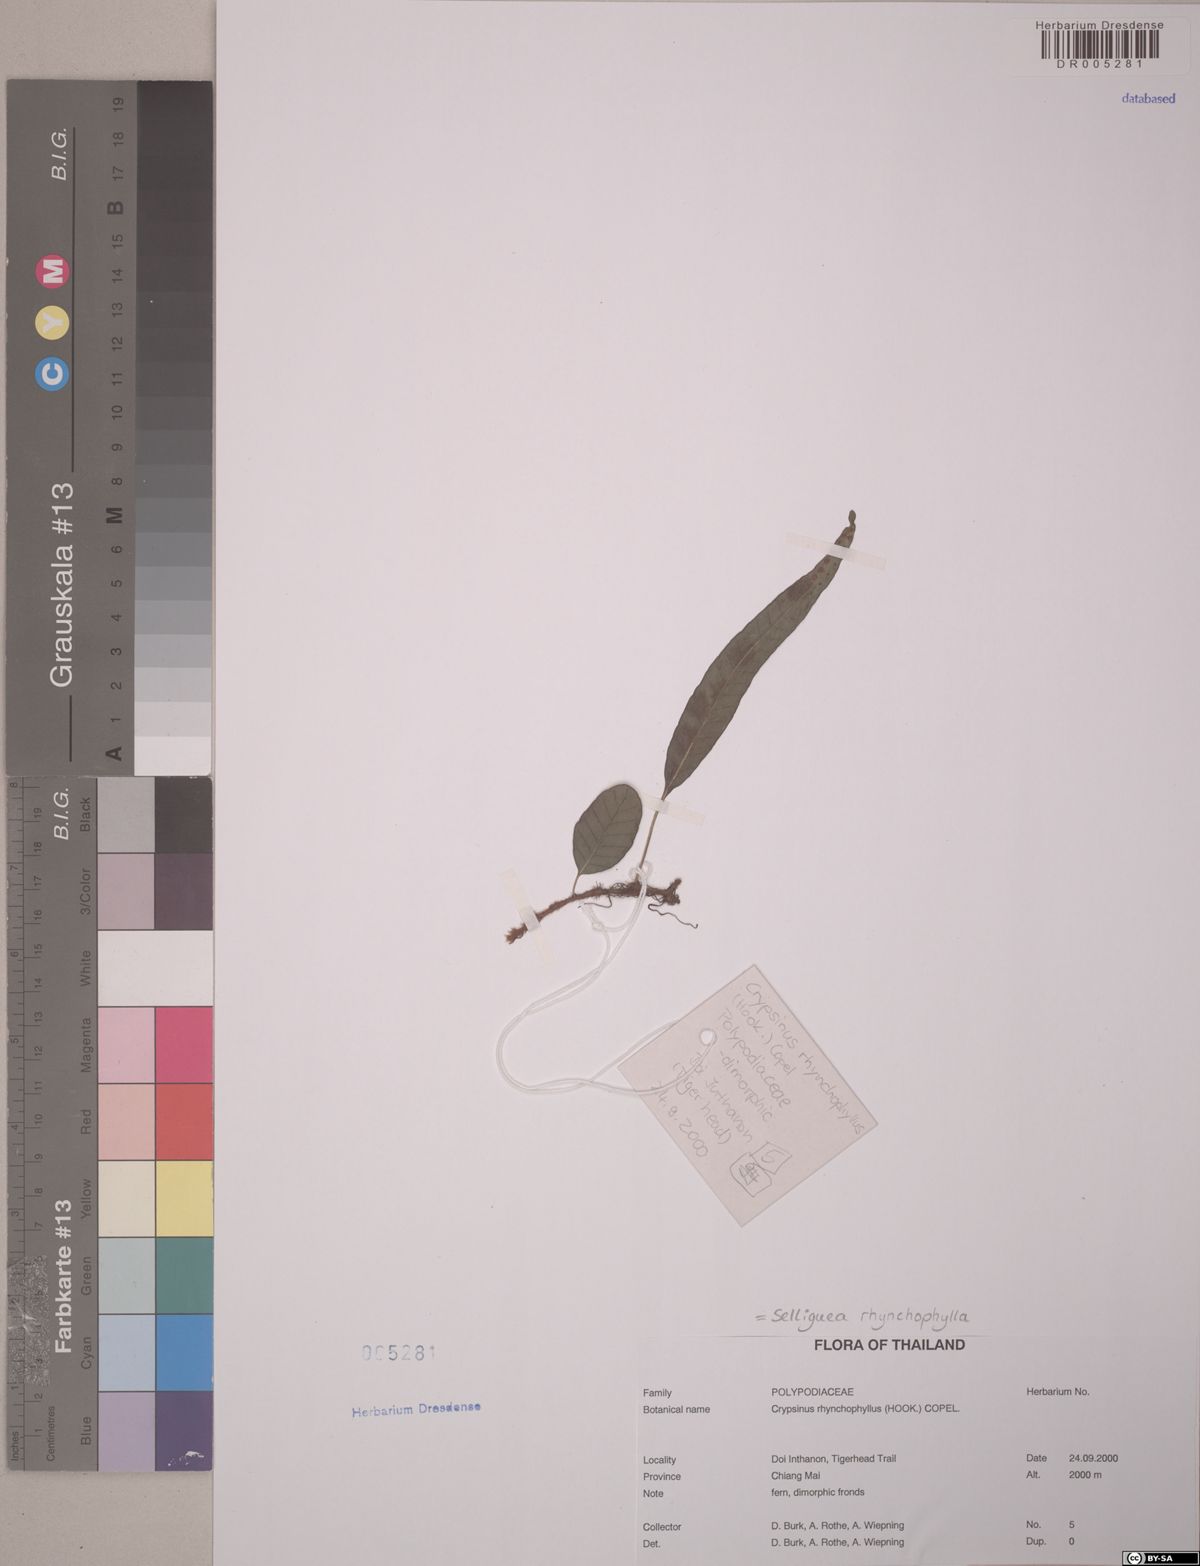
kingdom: Plantae
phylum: Tracheophyta
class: Polypodiopsida
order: Polypodiales
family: Polypodiaceae
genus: Selliguea
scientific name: Selliguea rhynchophylla
